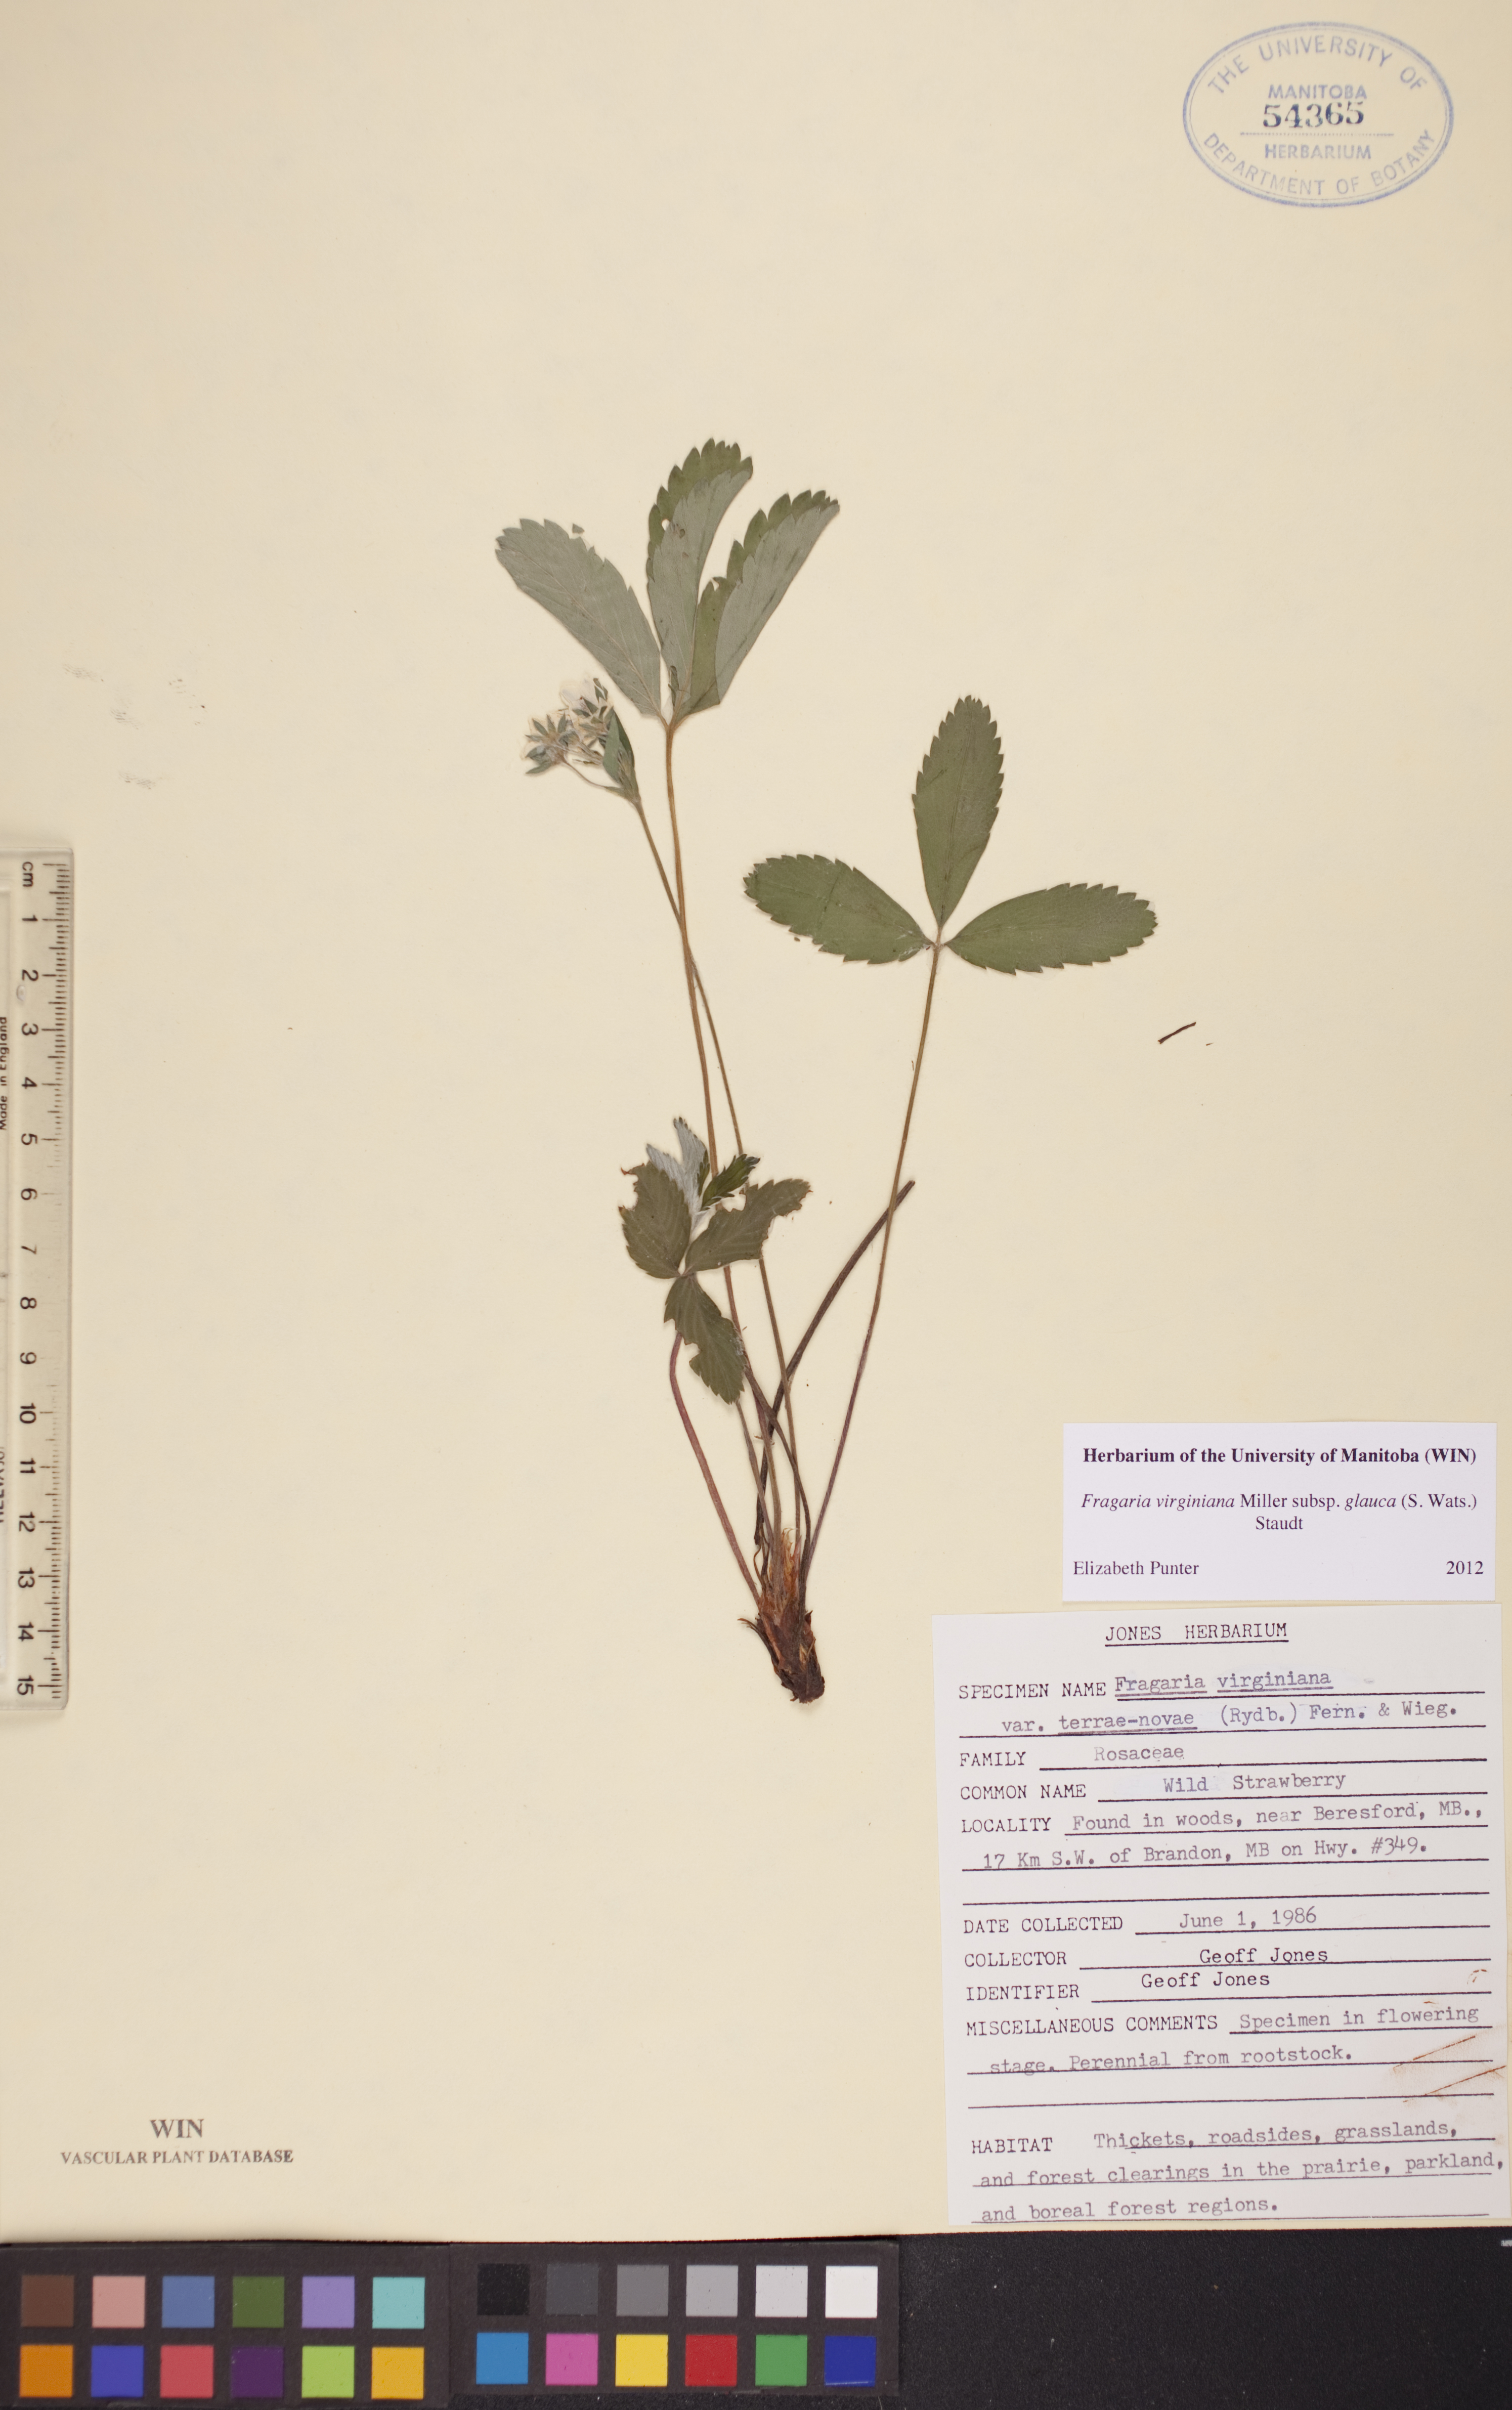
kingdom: Plantae
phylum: Tracheophyta
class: Magnoliopsida
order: Rosales
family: Rosaceae
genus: Fragaria
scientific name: Fragaria virginiana
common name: Thickleaved wild strawberry
